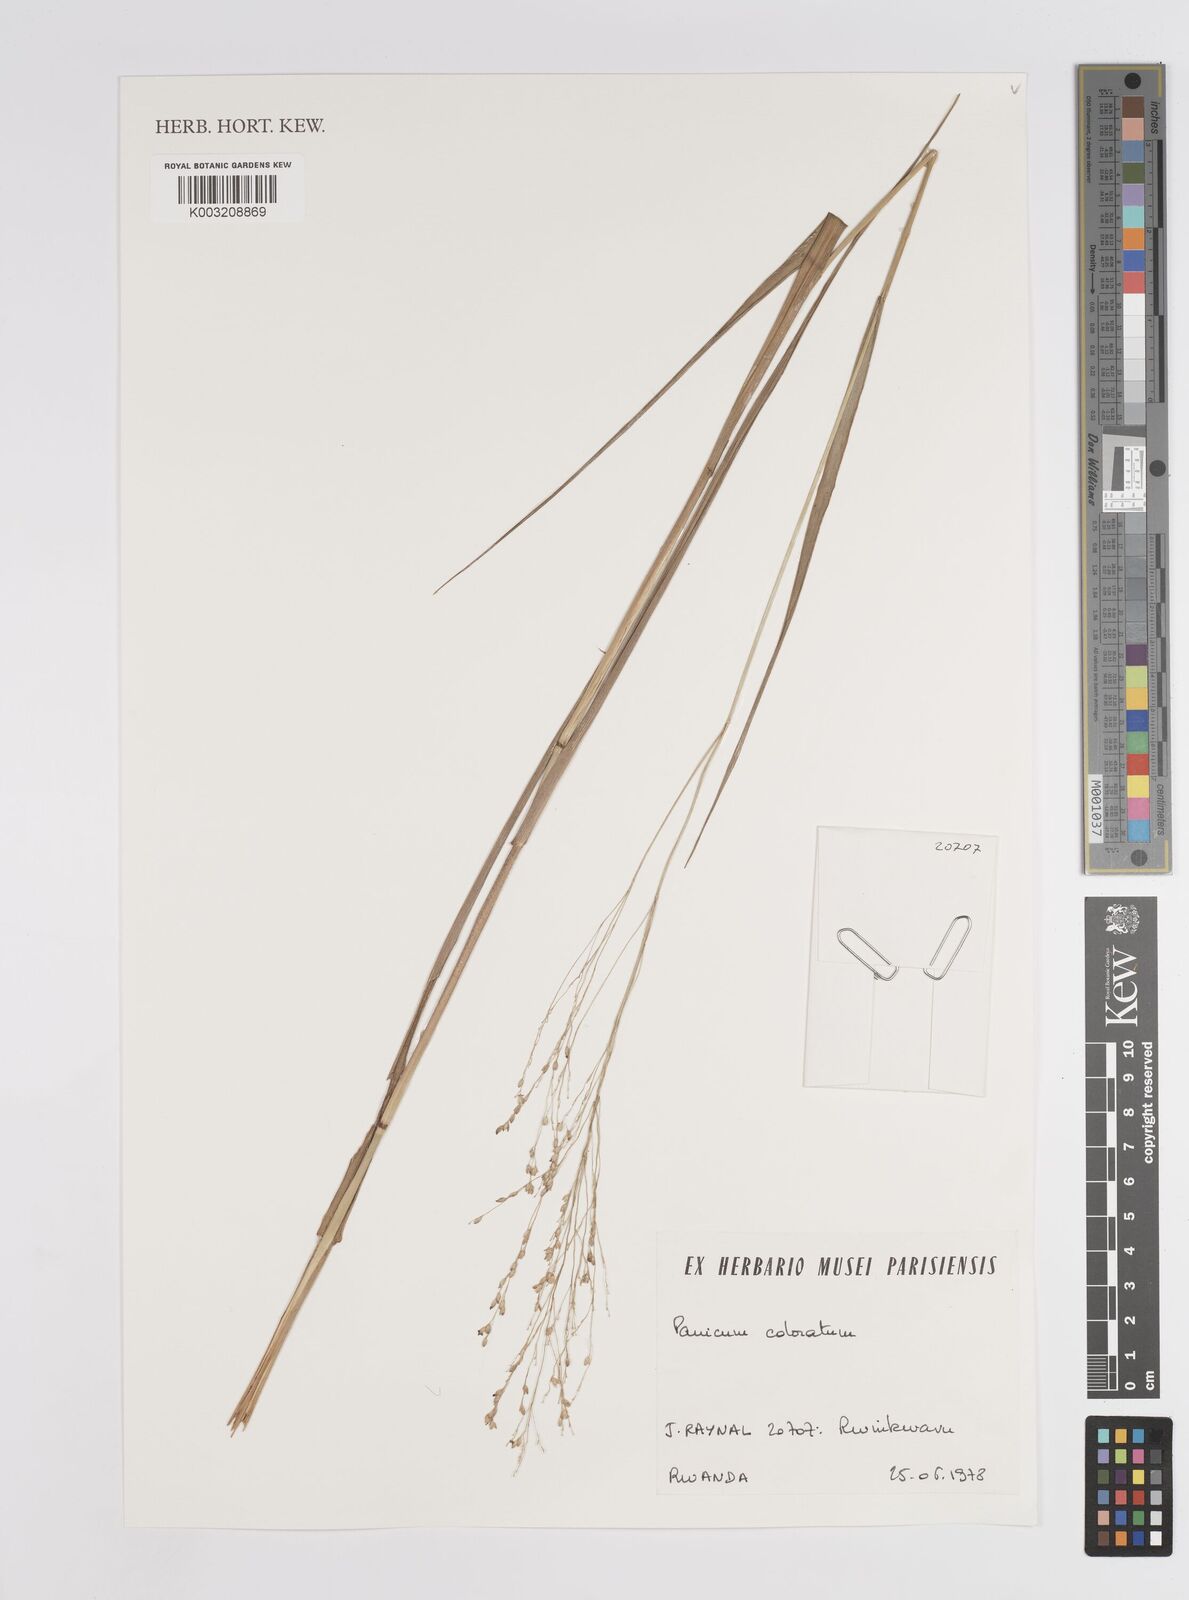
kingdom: Plantae
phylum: Tracheophyta
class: Liliopsida
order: Poales
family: Poaceae
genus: Panicum
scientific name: Panicum coloratum
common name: Kleingrass
